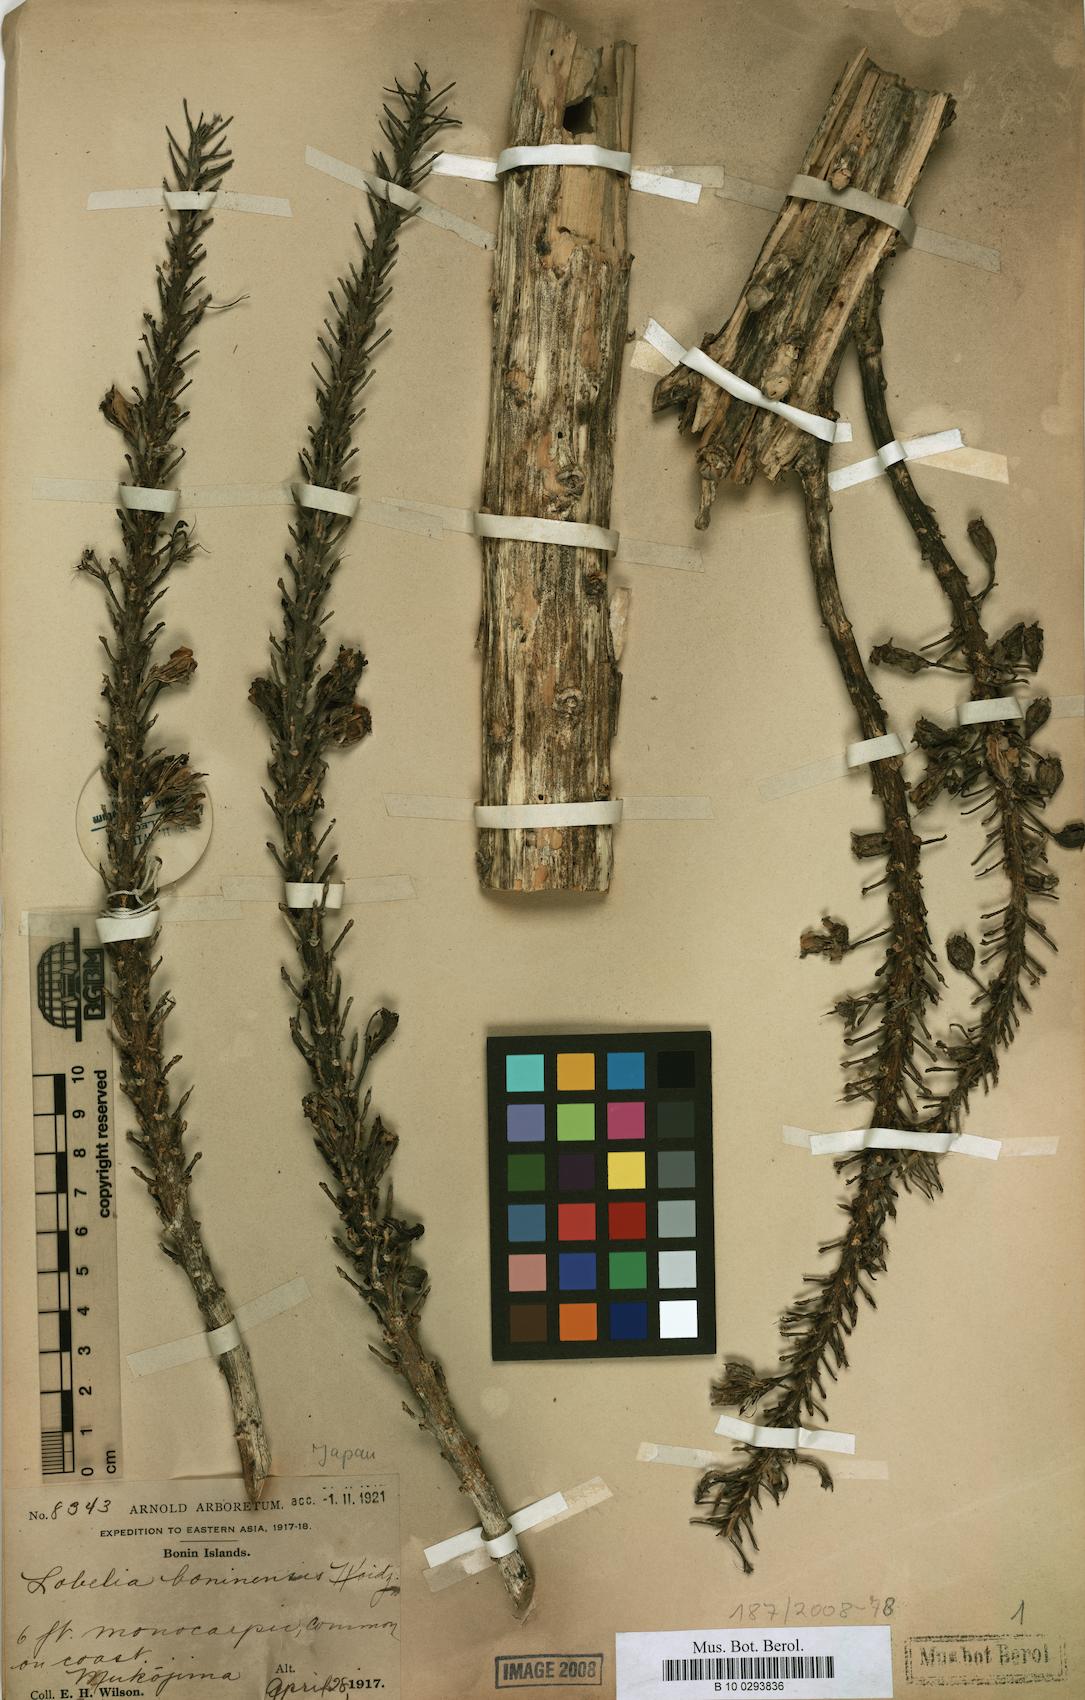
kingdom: Plantae
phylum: Tracheophyta
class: Magnoliopsida
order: Asterales
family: Campanulaceae
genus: Lobelia
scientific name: Lobelia boninensis
